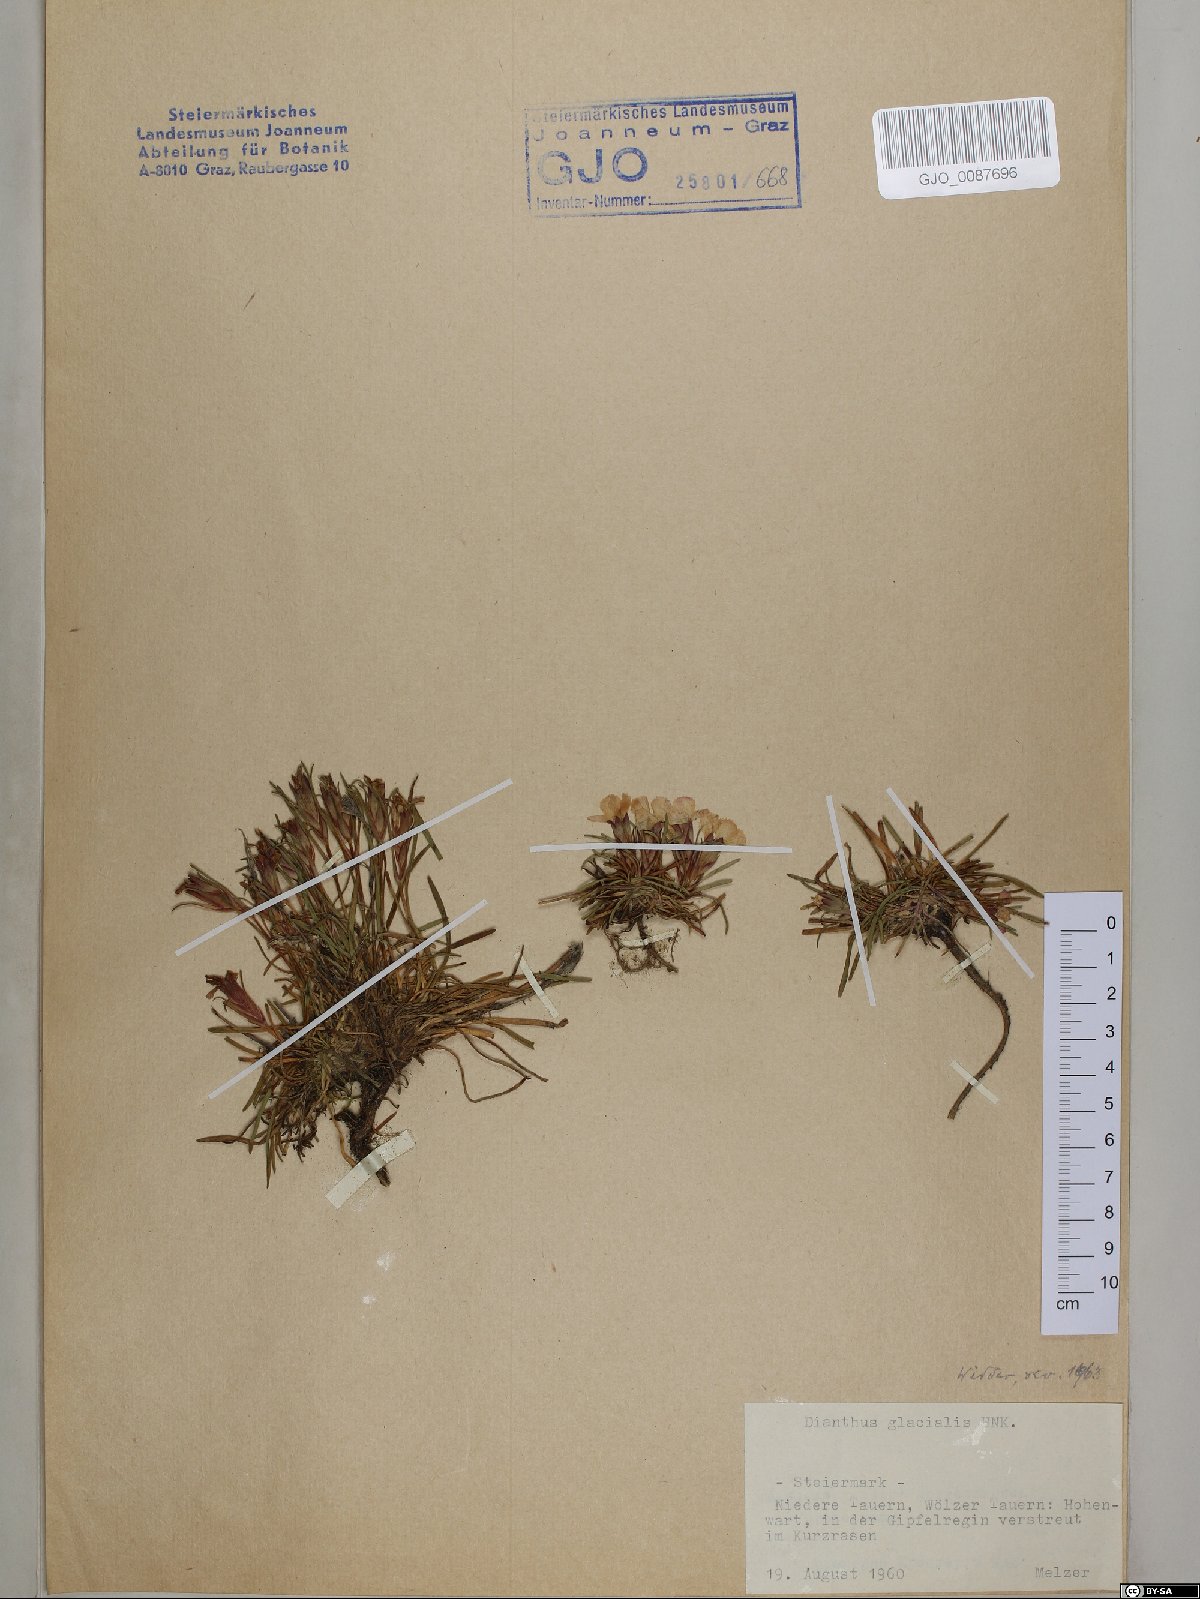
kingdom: Plantae
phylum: Tracheophyta
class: Magnoliopsida
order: Caryophyllales
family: Caryophyllaceae
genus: Dianthus
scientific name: Dianthus glacialis
